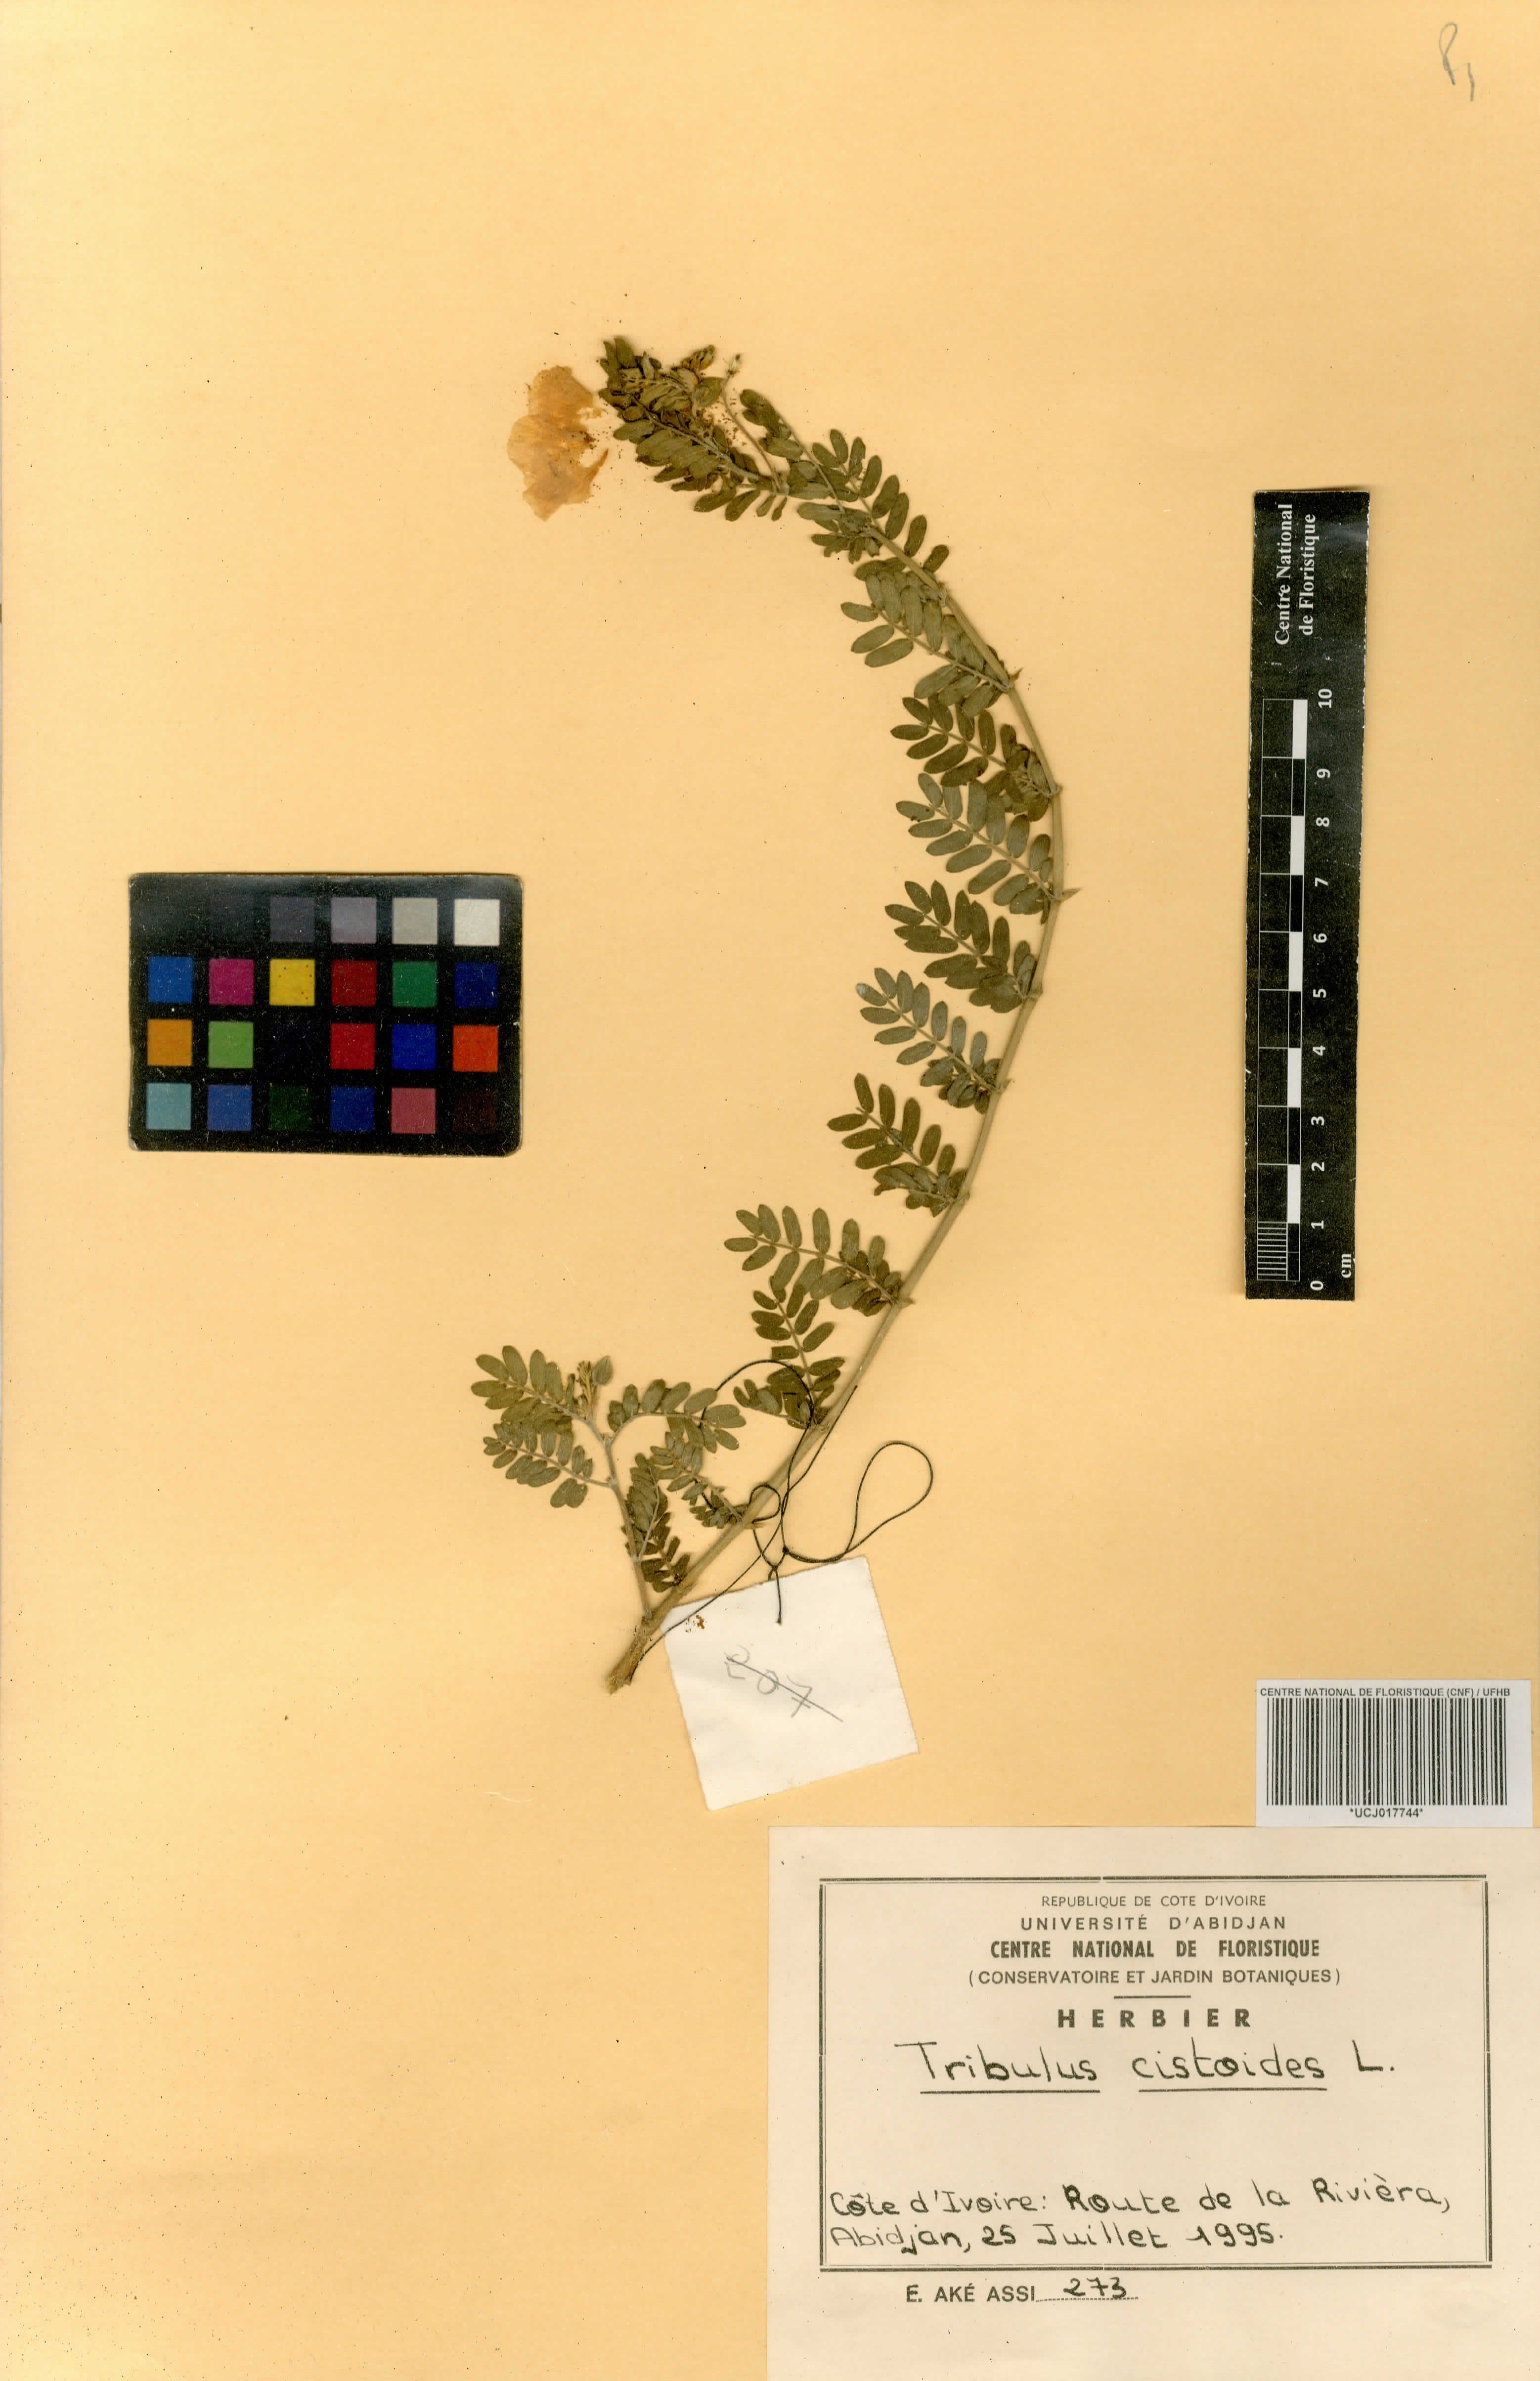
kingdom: Plantae
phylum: Tracheophyta
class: Magnoliopsida
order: Zygophyllales
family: Zygophyllaceae
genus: Tribulus
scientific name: Tribulus cistoides
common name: Jamaican feverplant
